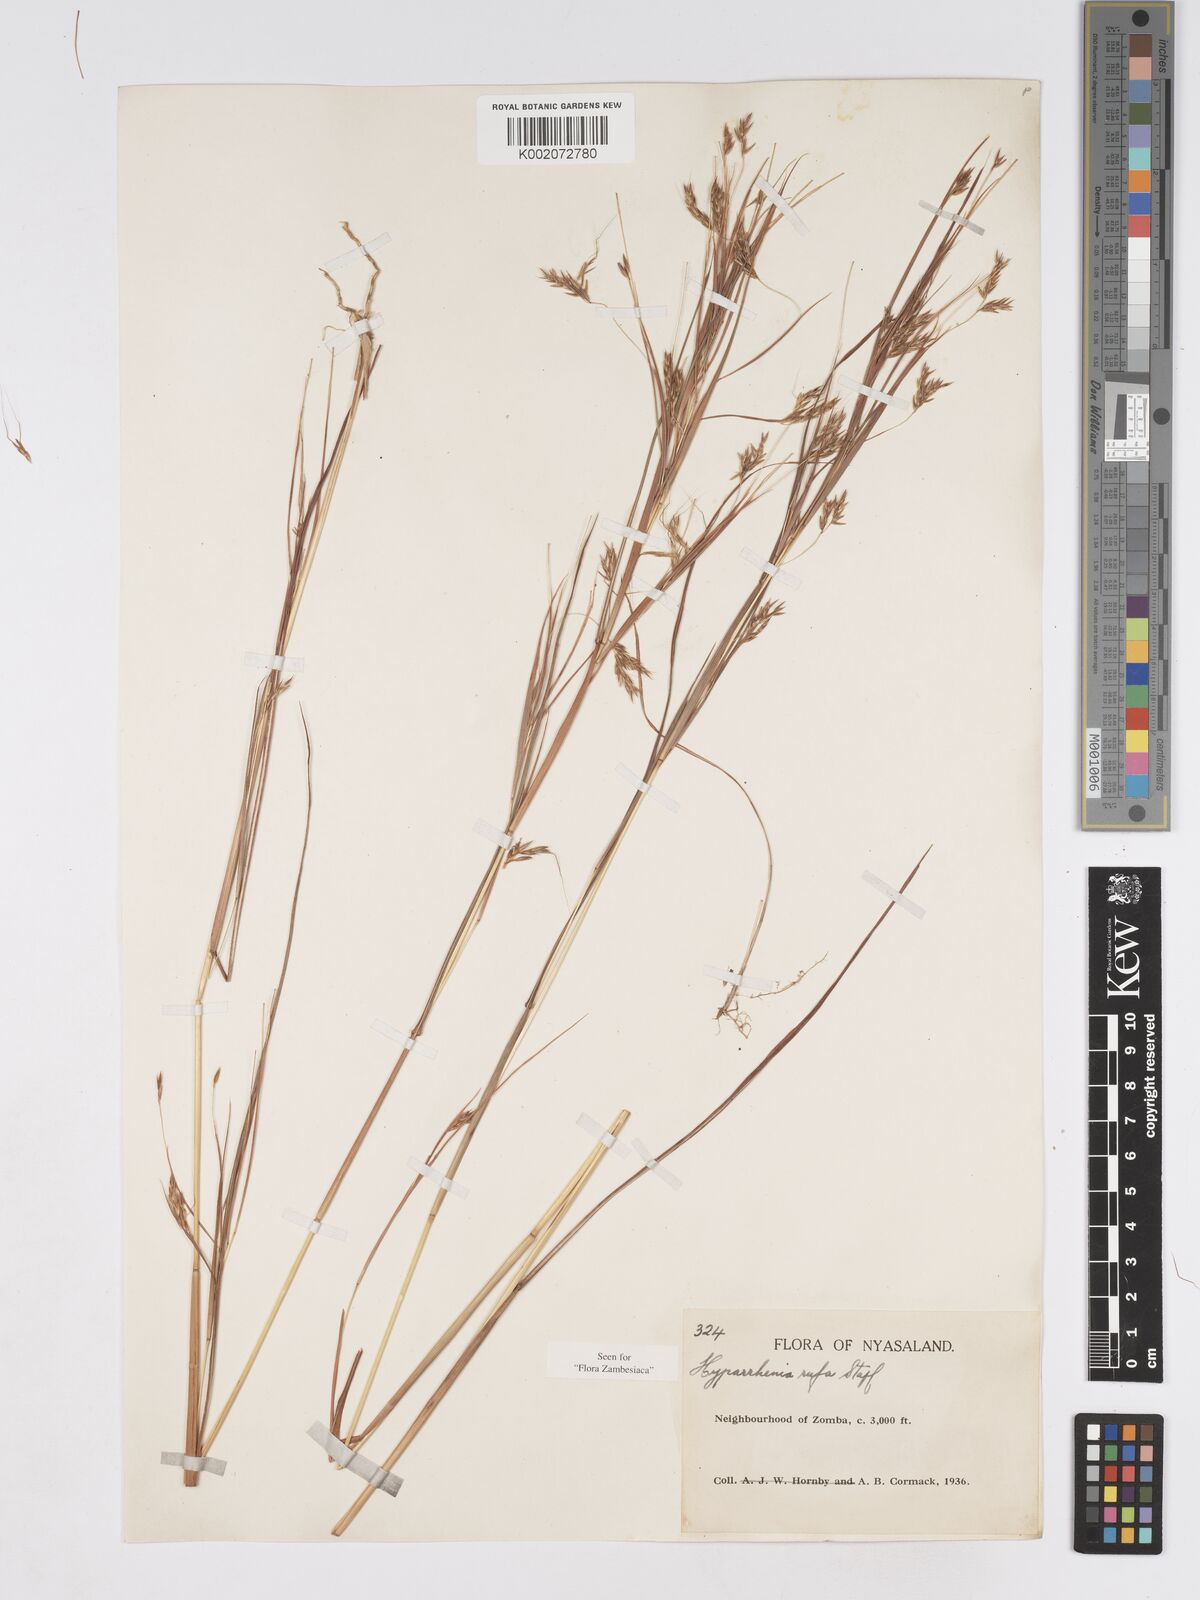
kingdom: Plantae
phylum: Tracheophyta
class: Liliopsida
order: Poales
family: Poaceae
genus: Hyparrhenia
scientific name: Hyparrhenia rufa
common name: Jaraguagrass
